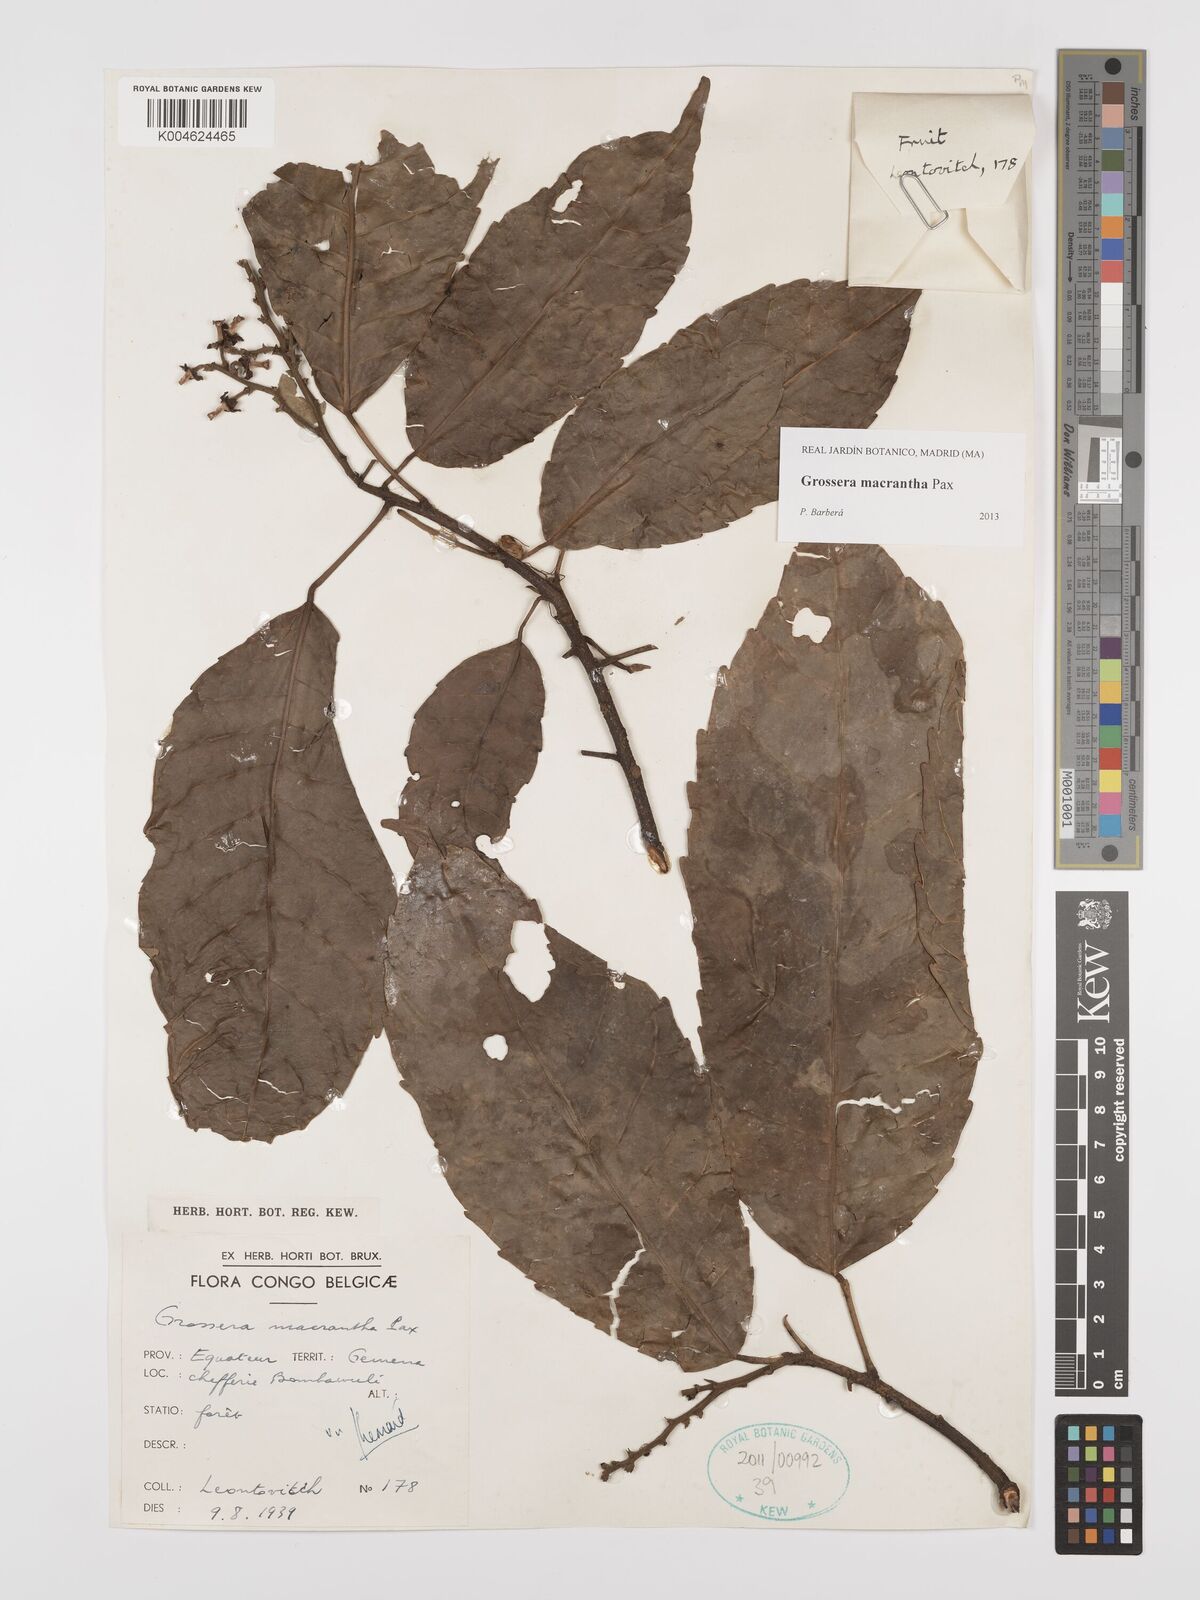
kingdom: Plantae
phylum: Tracheophyta
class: Magnoliopsida
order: Malpighiales
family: Euphorbiaceae
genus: Grossera
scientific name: Grossera macrantha
